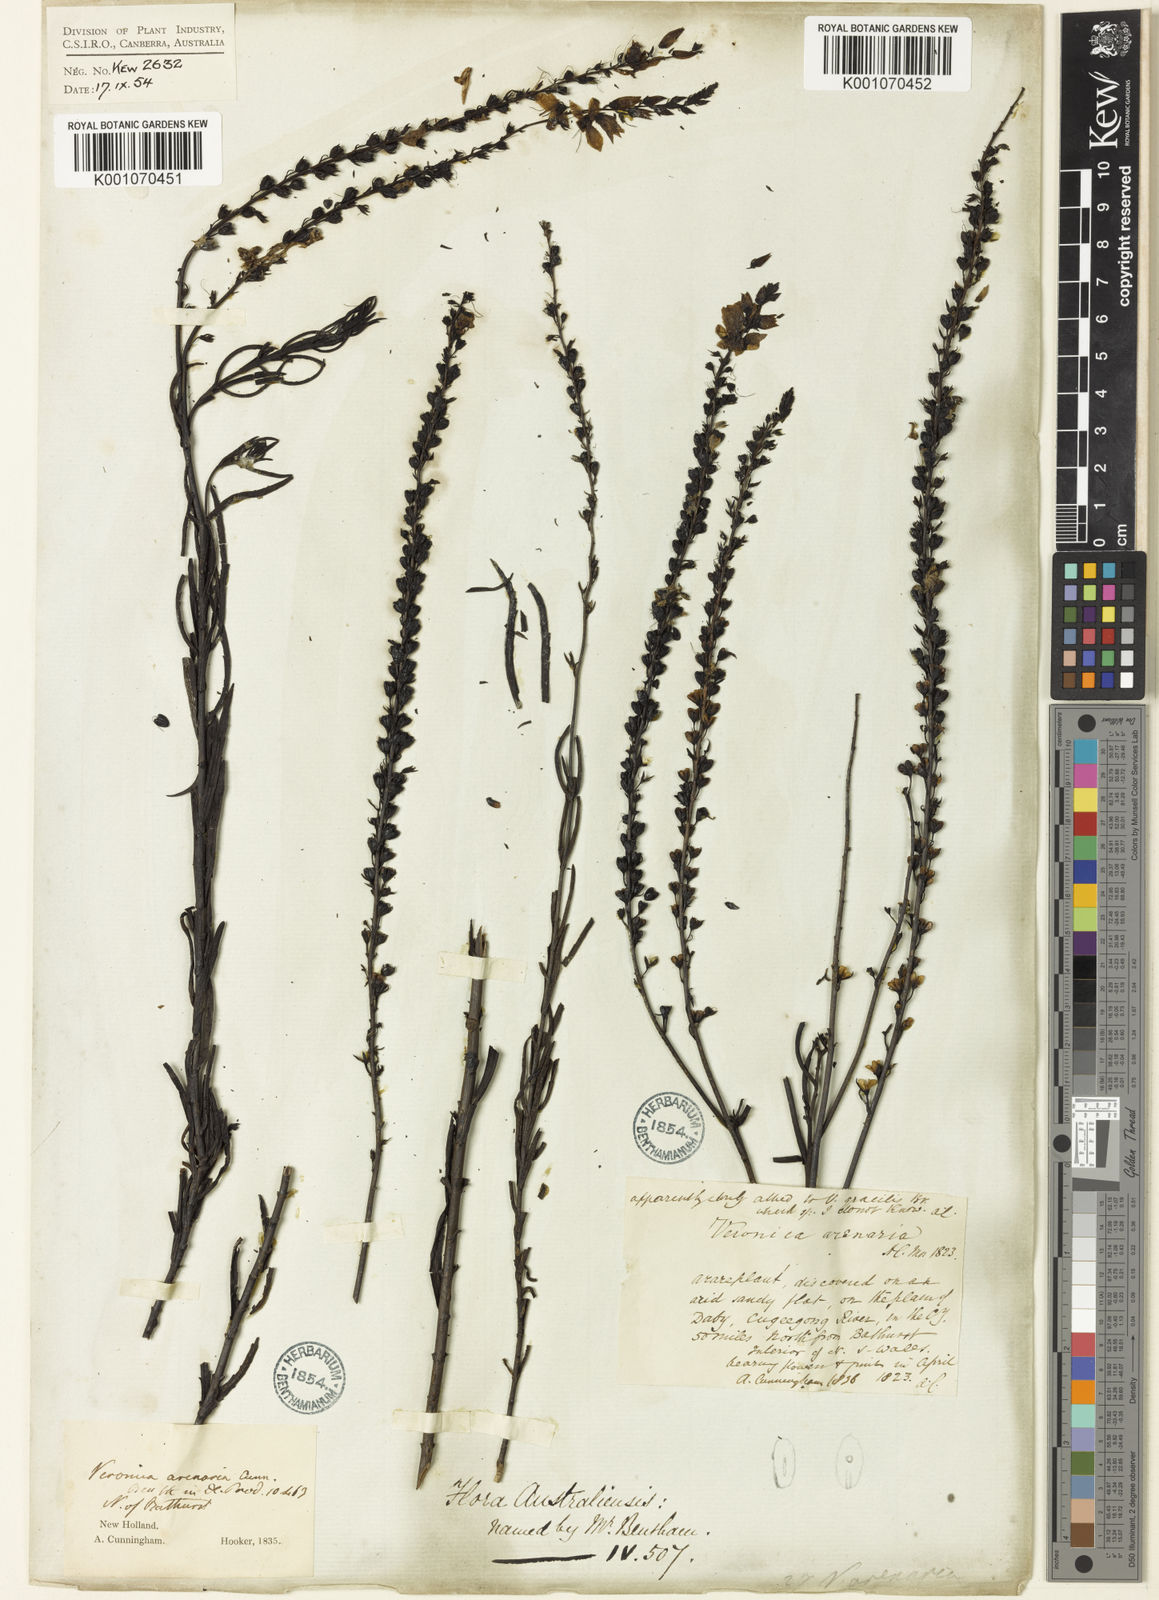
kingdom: Plantae
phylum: Tracheophyta
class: Magnoliopsida
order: Lamiales
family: Plantaginaceae
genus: Veronica
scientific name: Veronica
